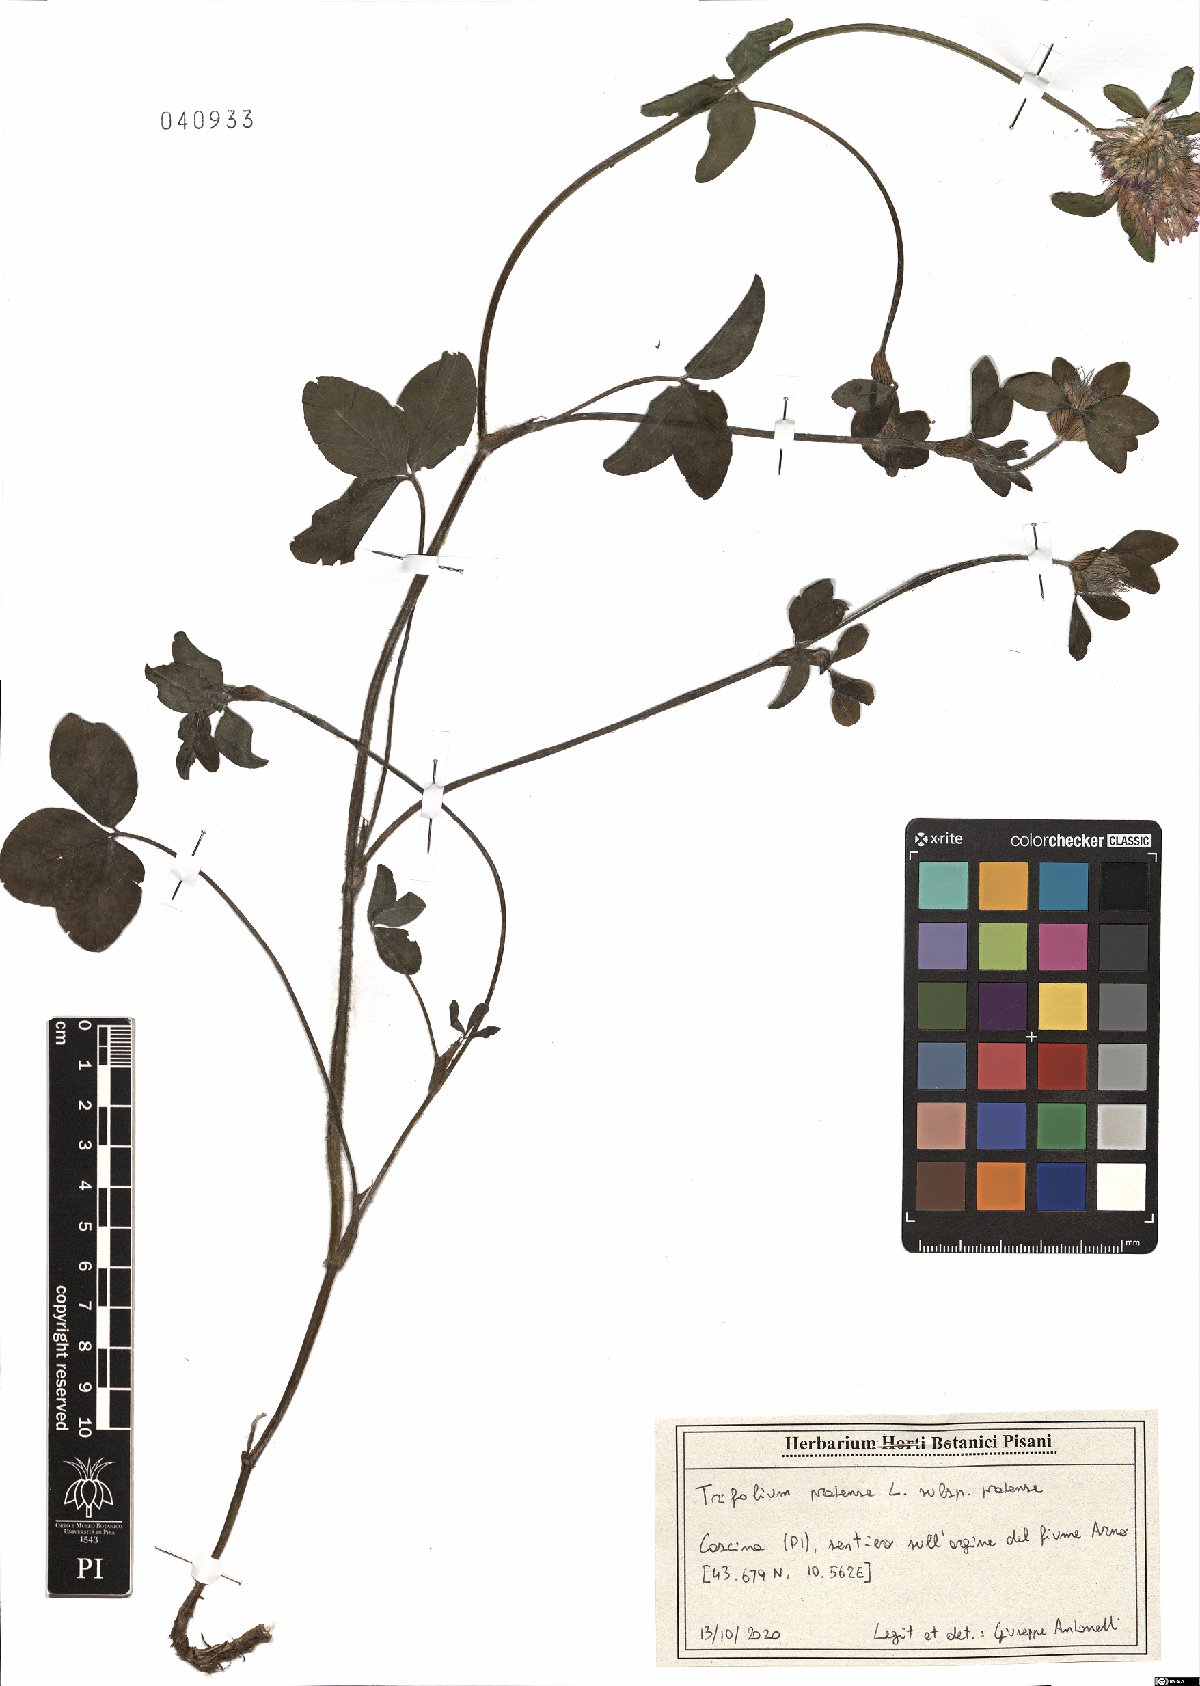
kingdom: Plantae
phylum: Tracheophyta
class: Magnoliopsida
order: Fabales
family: Fabaceae
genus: Trifolium
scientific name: Trifolium pratense
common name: Red clover
